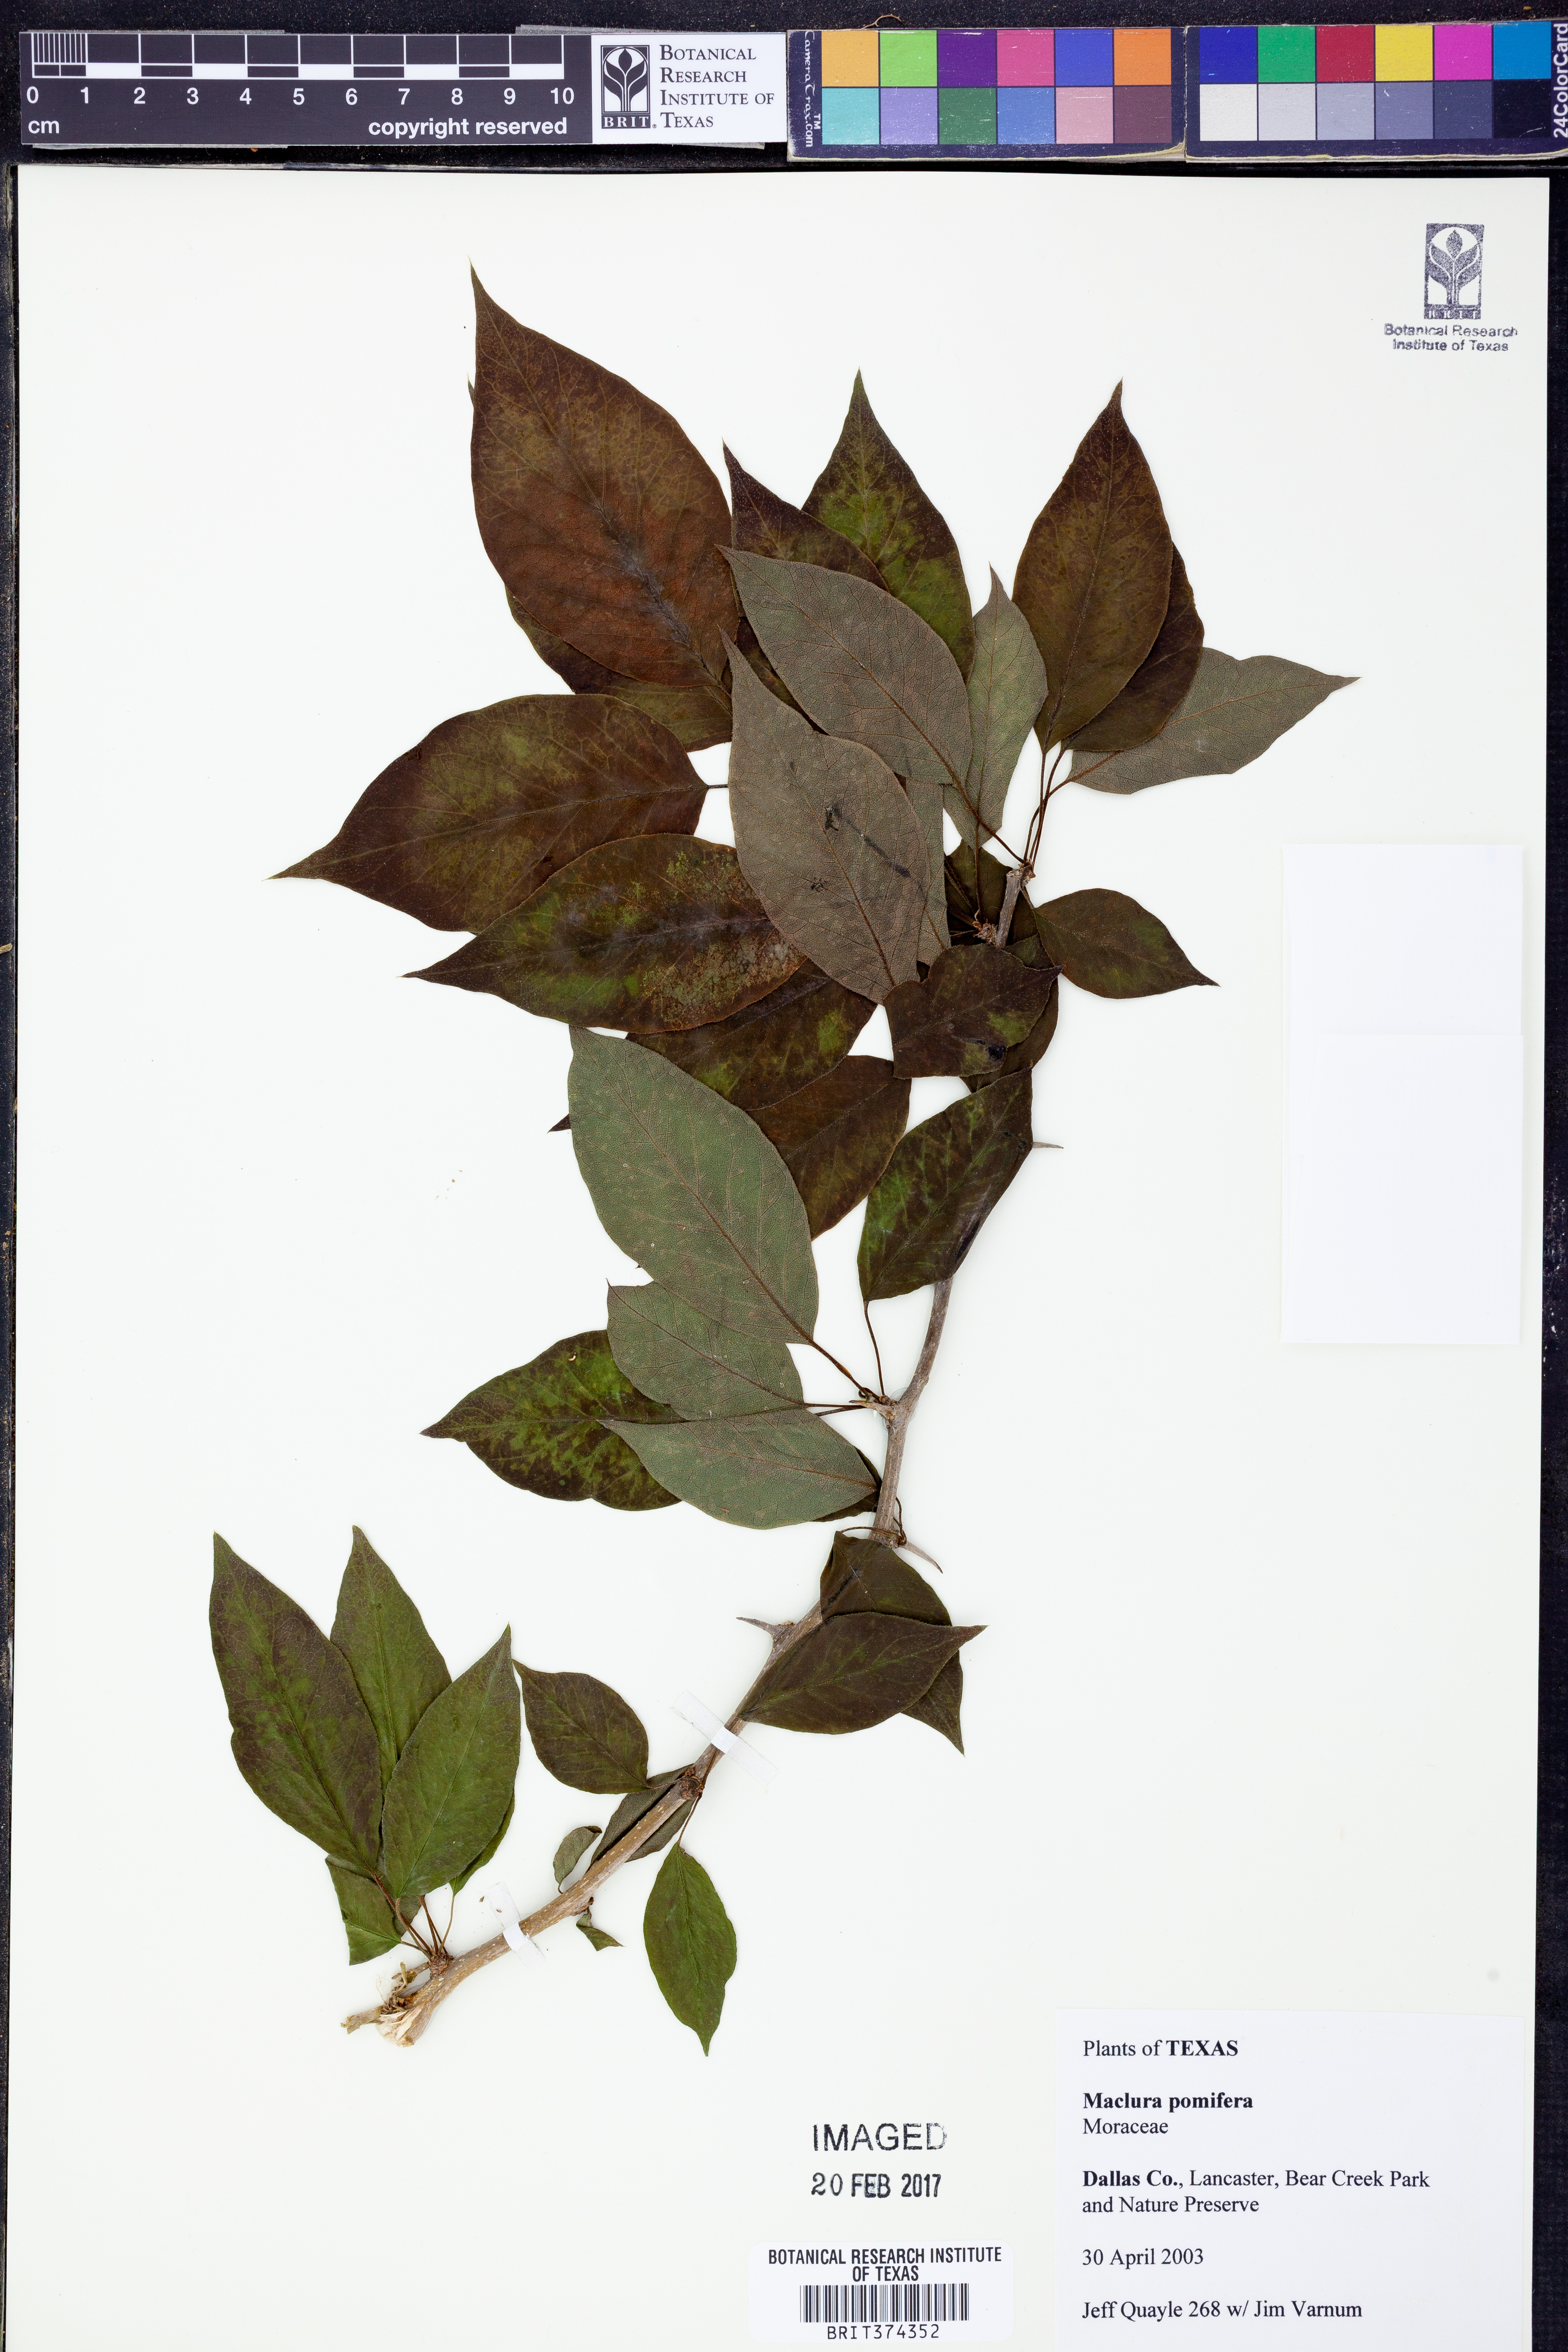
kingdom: Plantae
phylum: Tracheophyta
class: Magnoliopsida
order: Rosales
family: Moraceae
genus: Maclura
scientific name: Maclura pomifera
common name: Osage-orange
